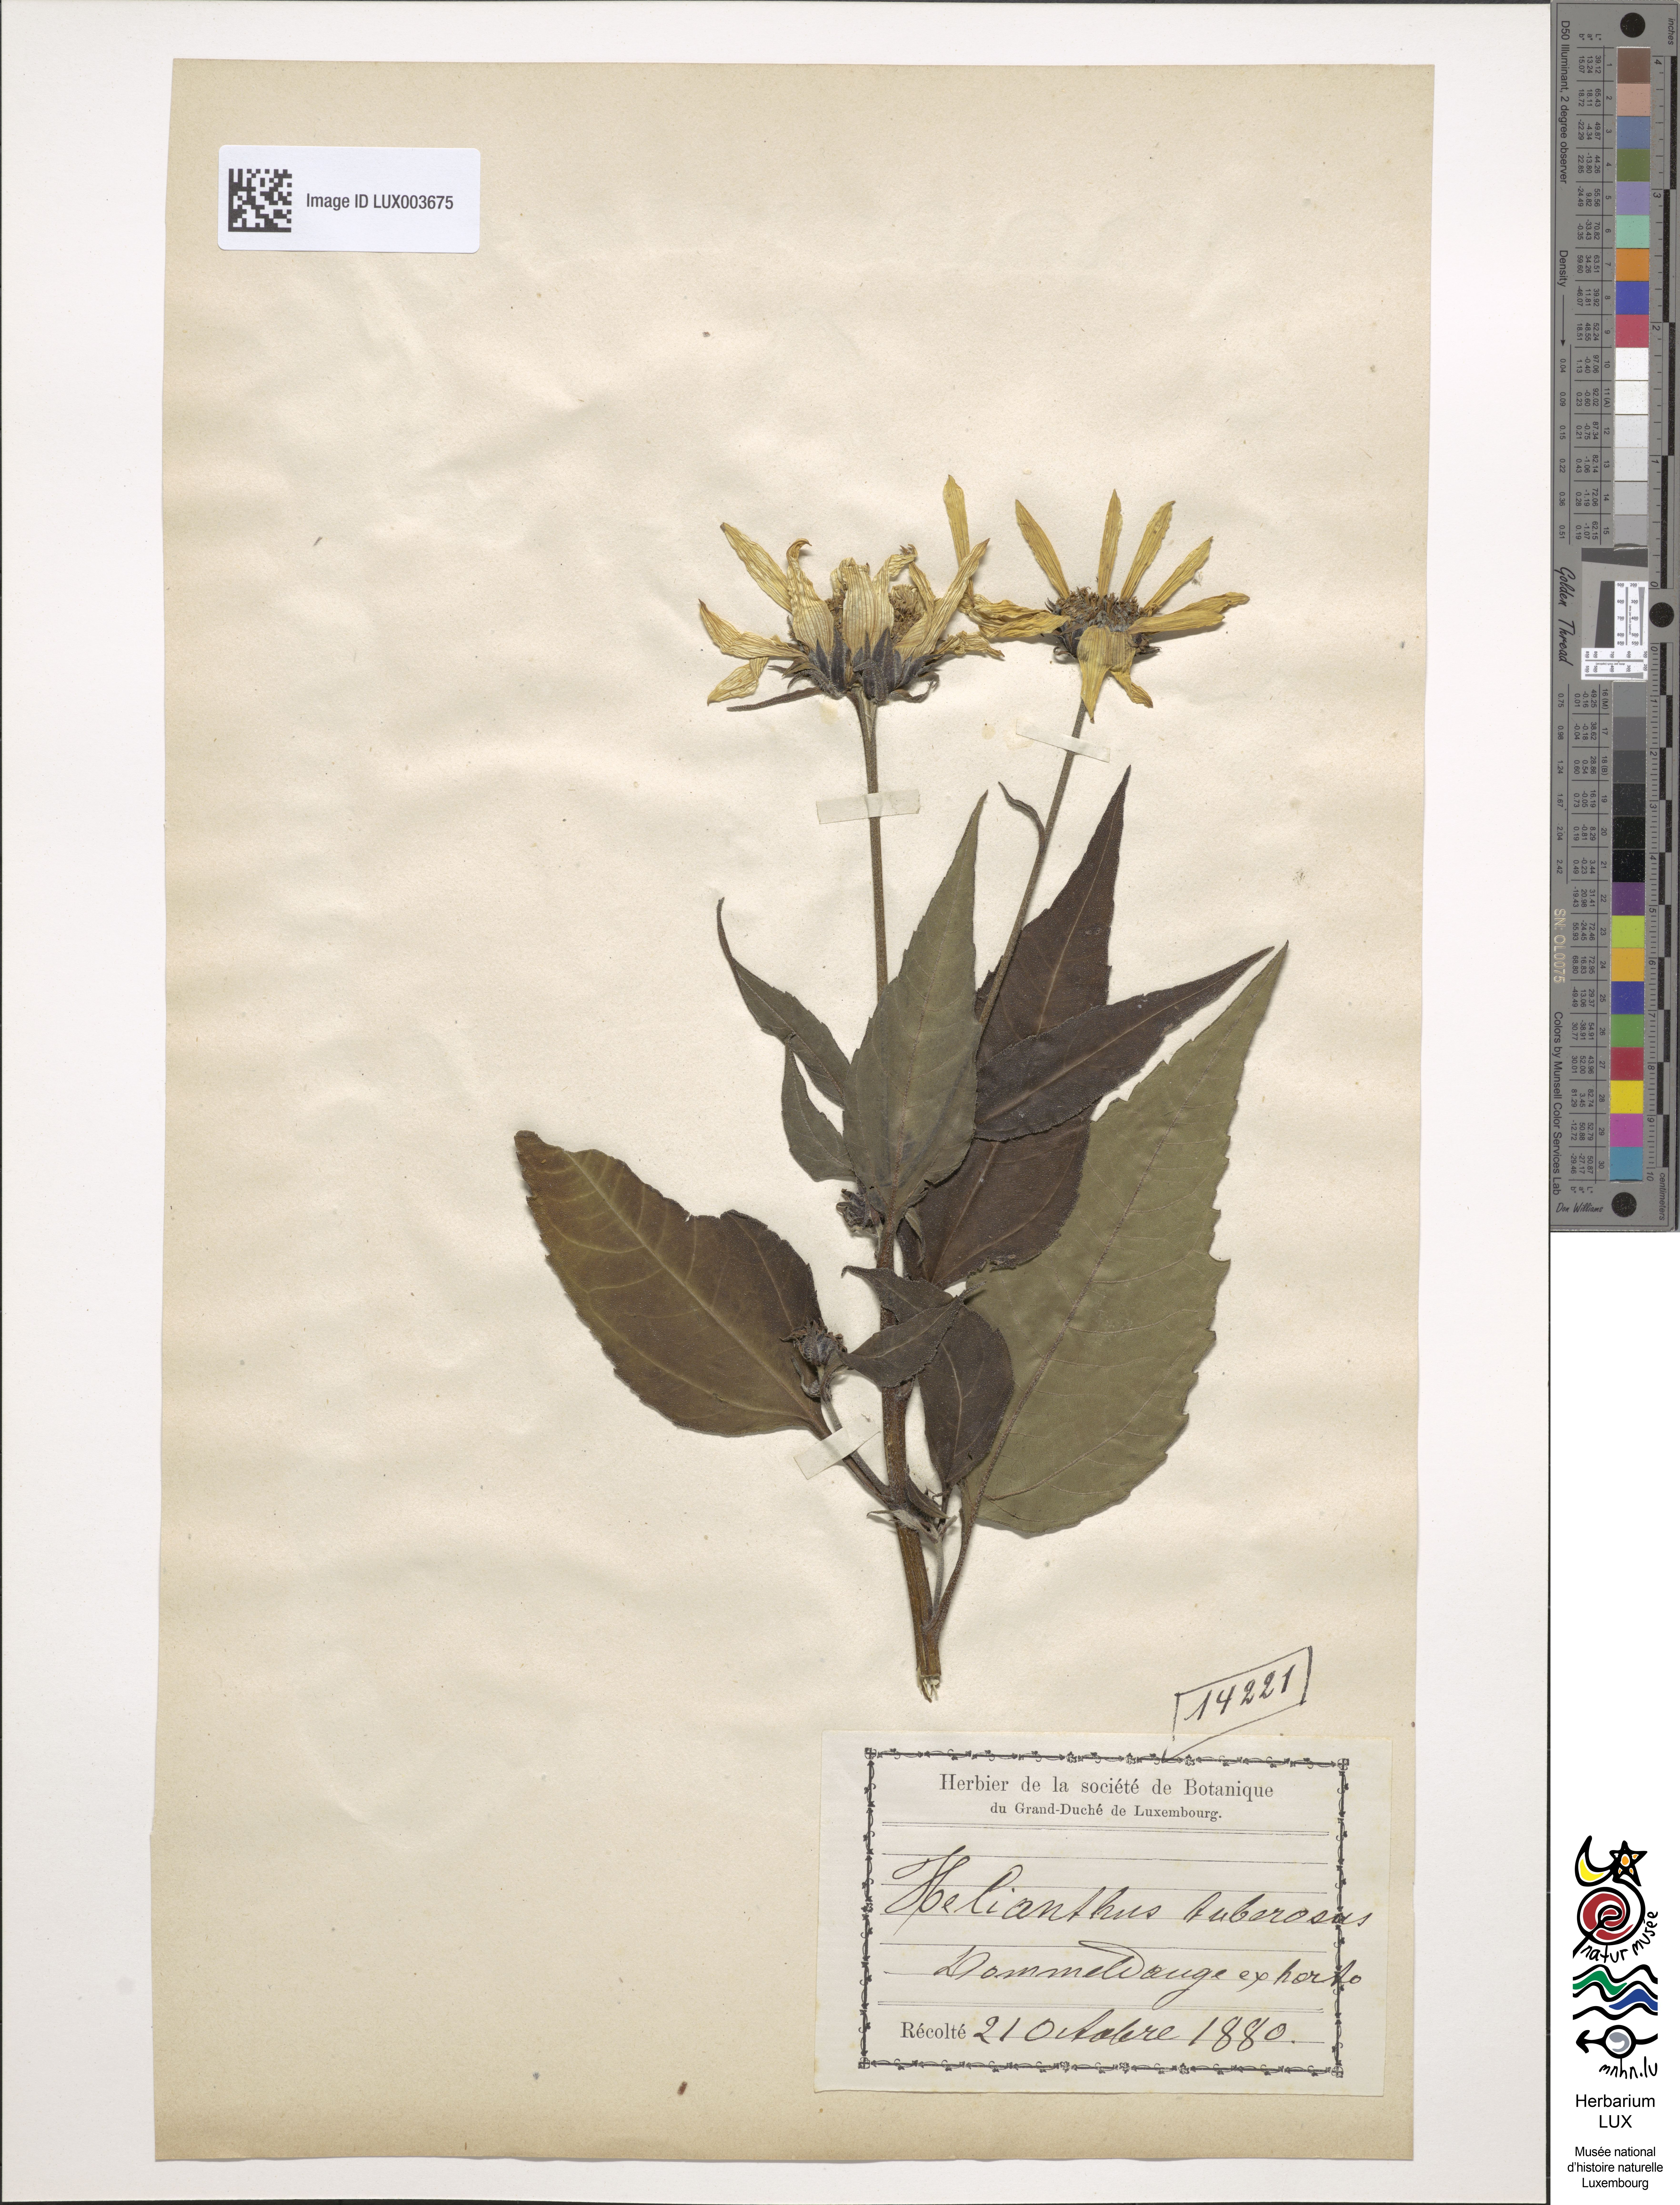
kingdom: Plantae
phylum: Tracheophyta
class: Magnoliopsida
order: Asterales
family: Asteraceae
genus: Helianthus
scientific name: Helianthus tuberosus
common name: Jerusalem artichoke
